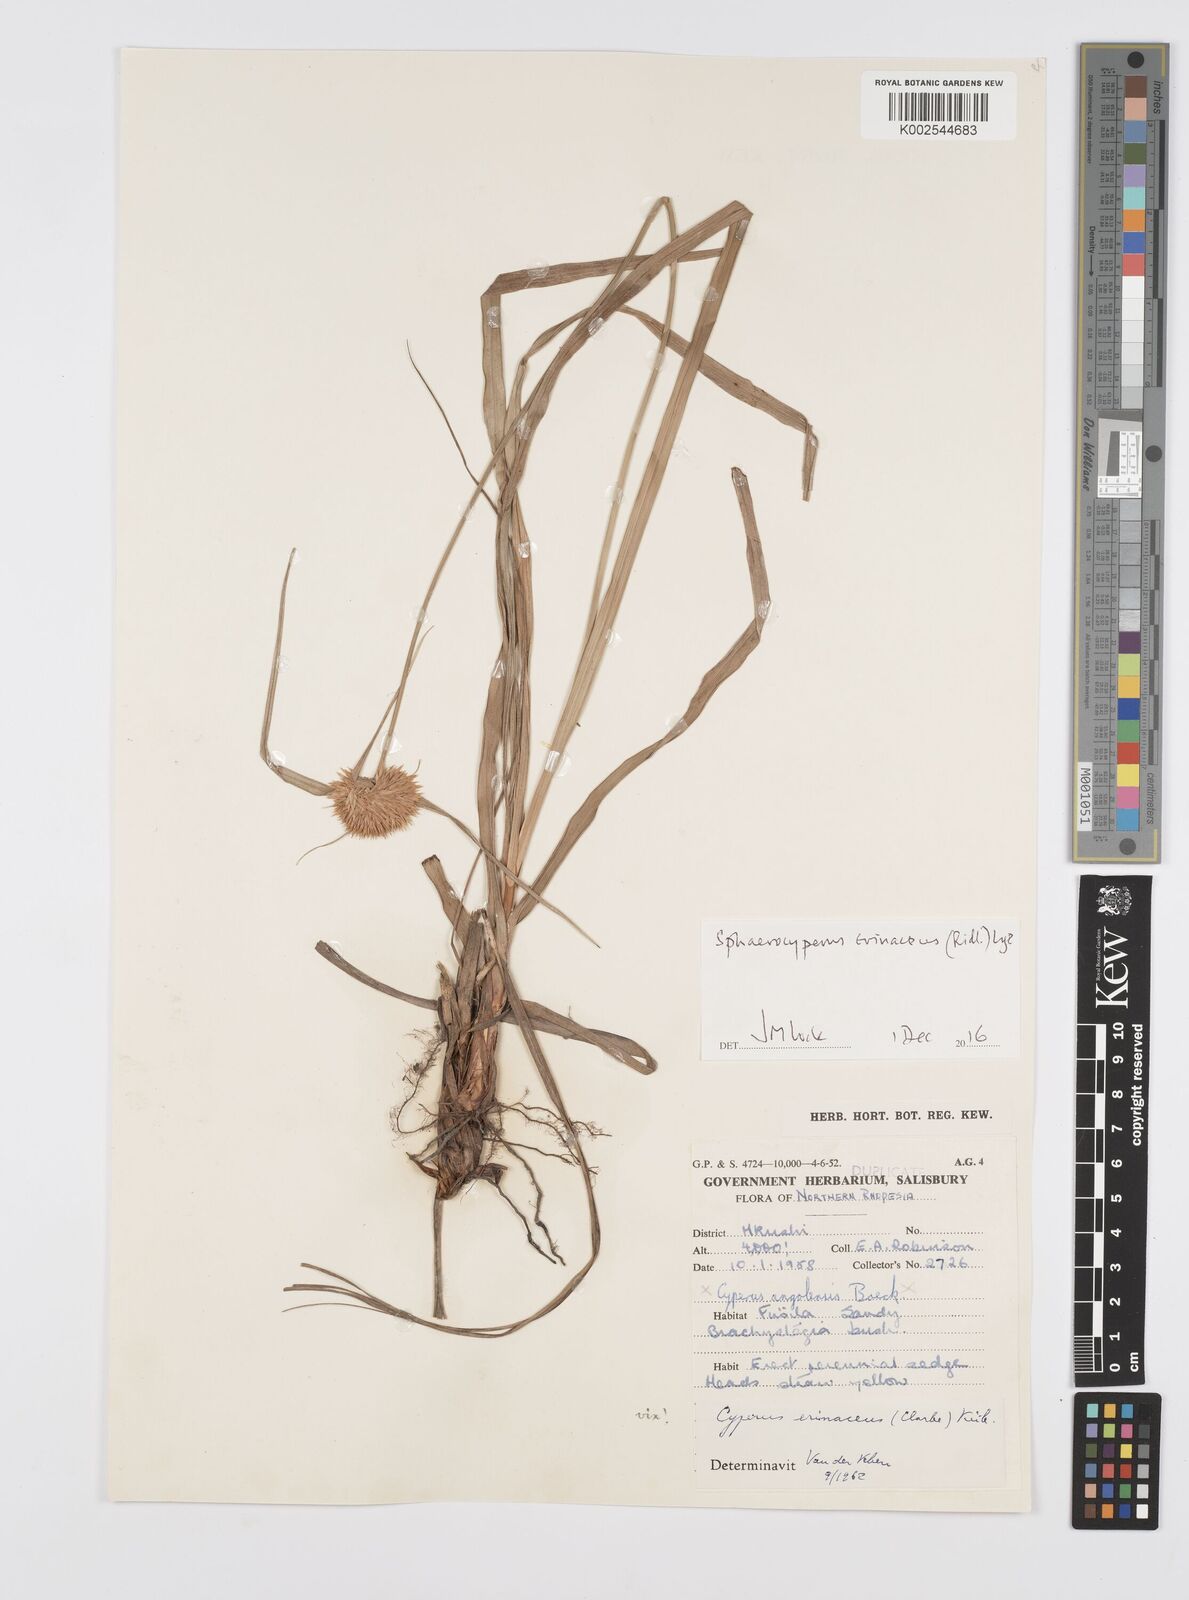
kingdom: Plantae
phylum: Tracheophyta
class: Liliopsida
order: Poales
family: Cyperaceae
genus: Cyperus
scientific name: Cyperus erinaceus
